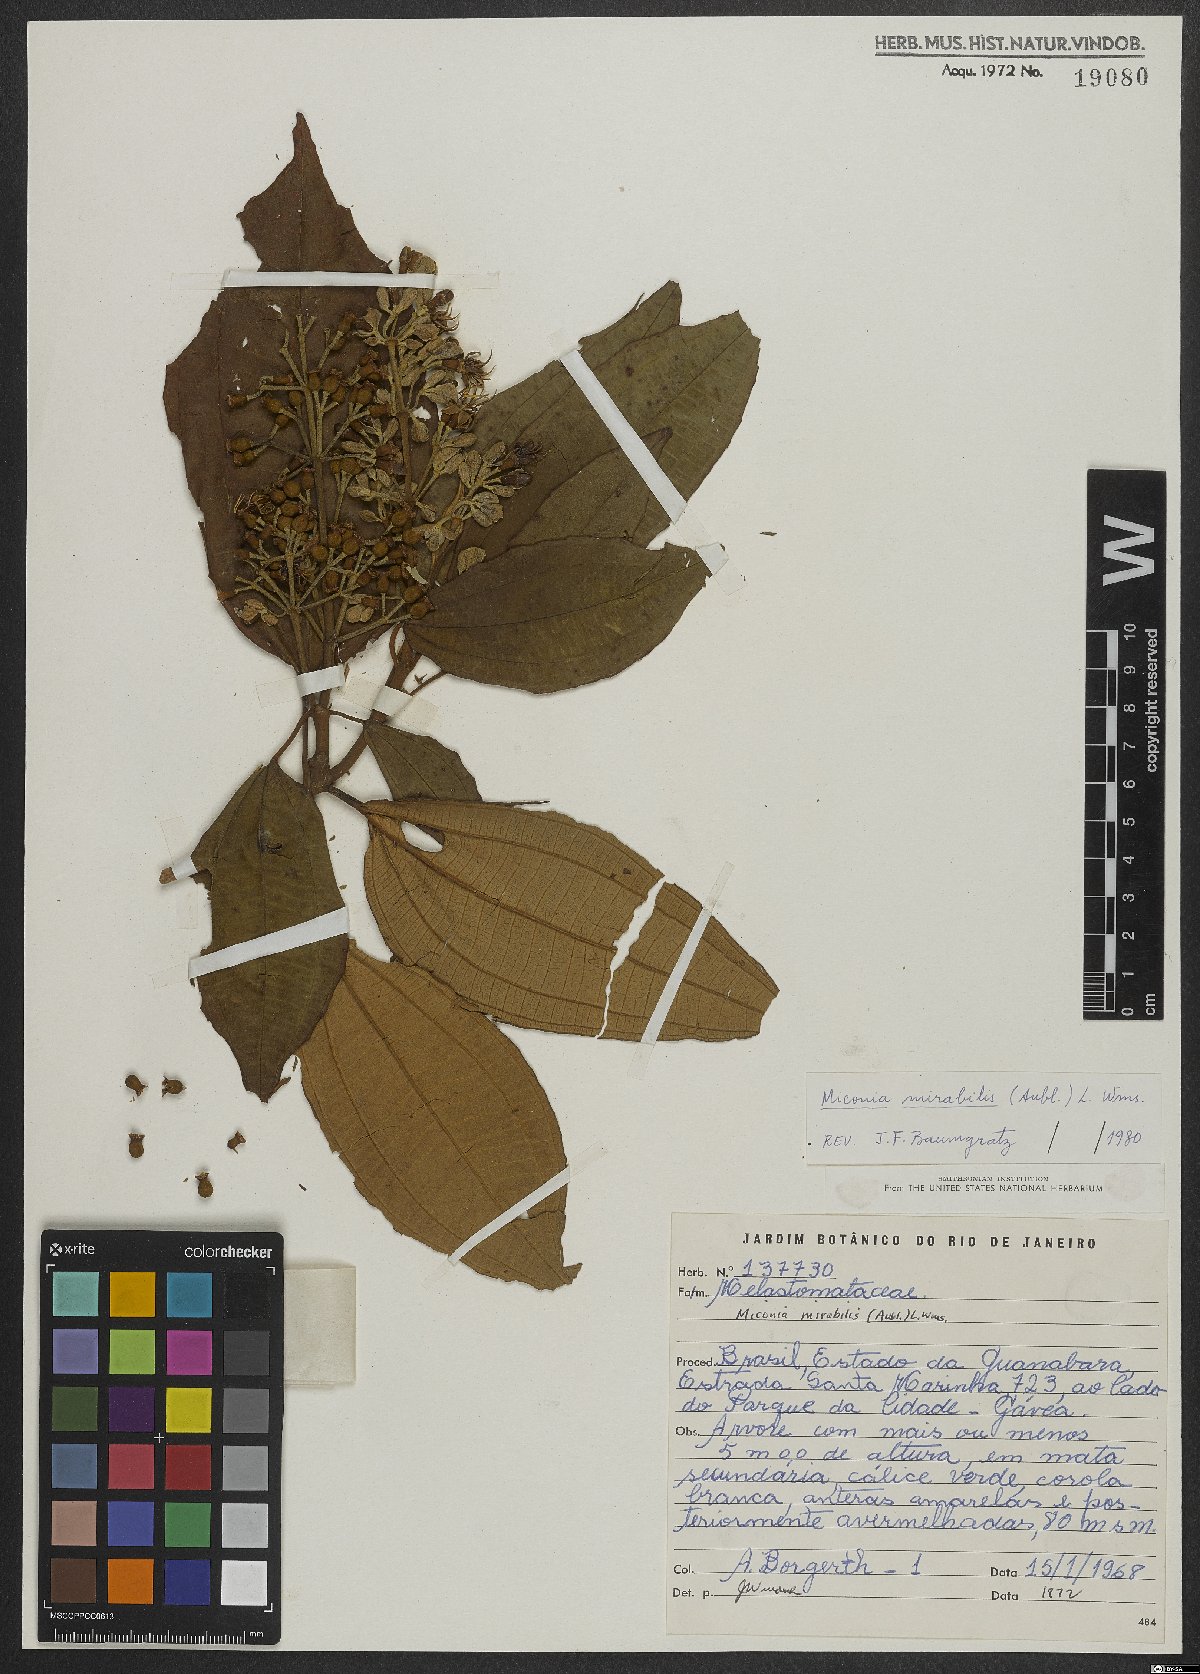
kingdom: Plantae
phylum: Tracheophyta
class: Magnoliopsida
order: Myrtales
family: Melastomataceae
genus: Miconia
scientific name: Miconia mirabilis
